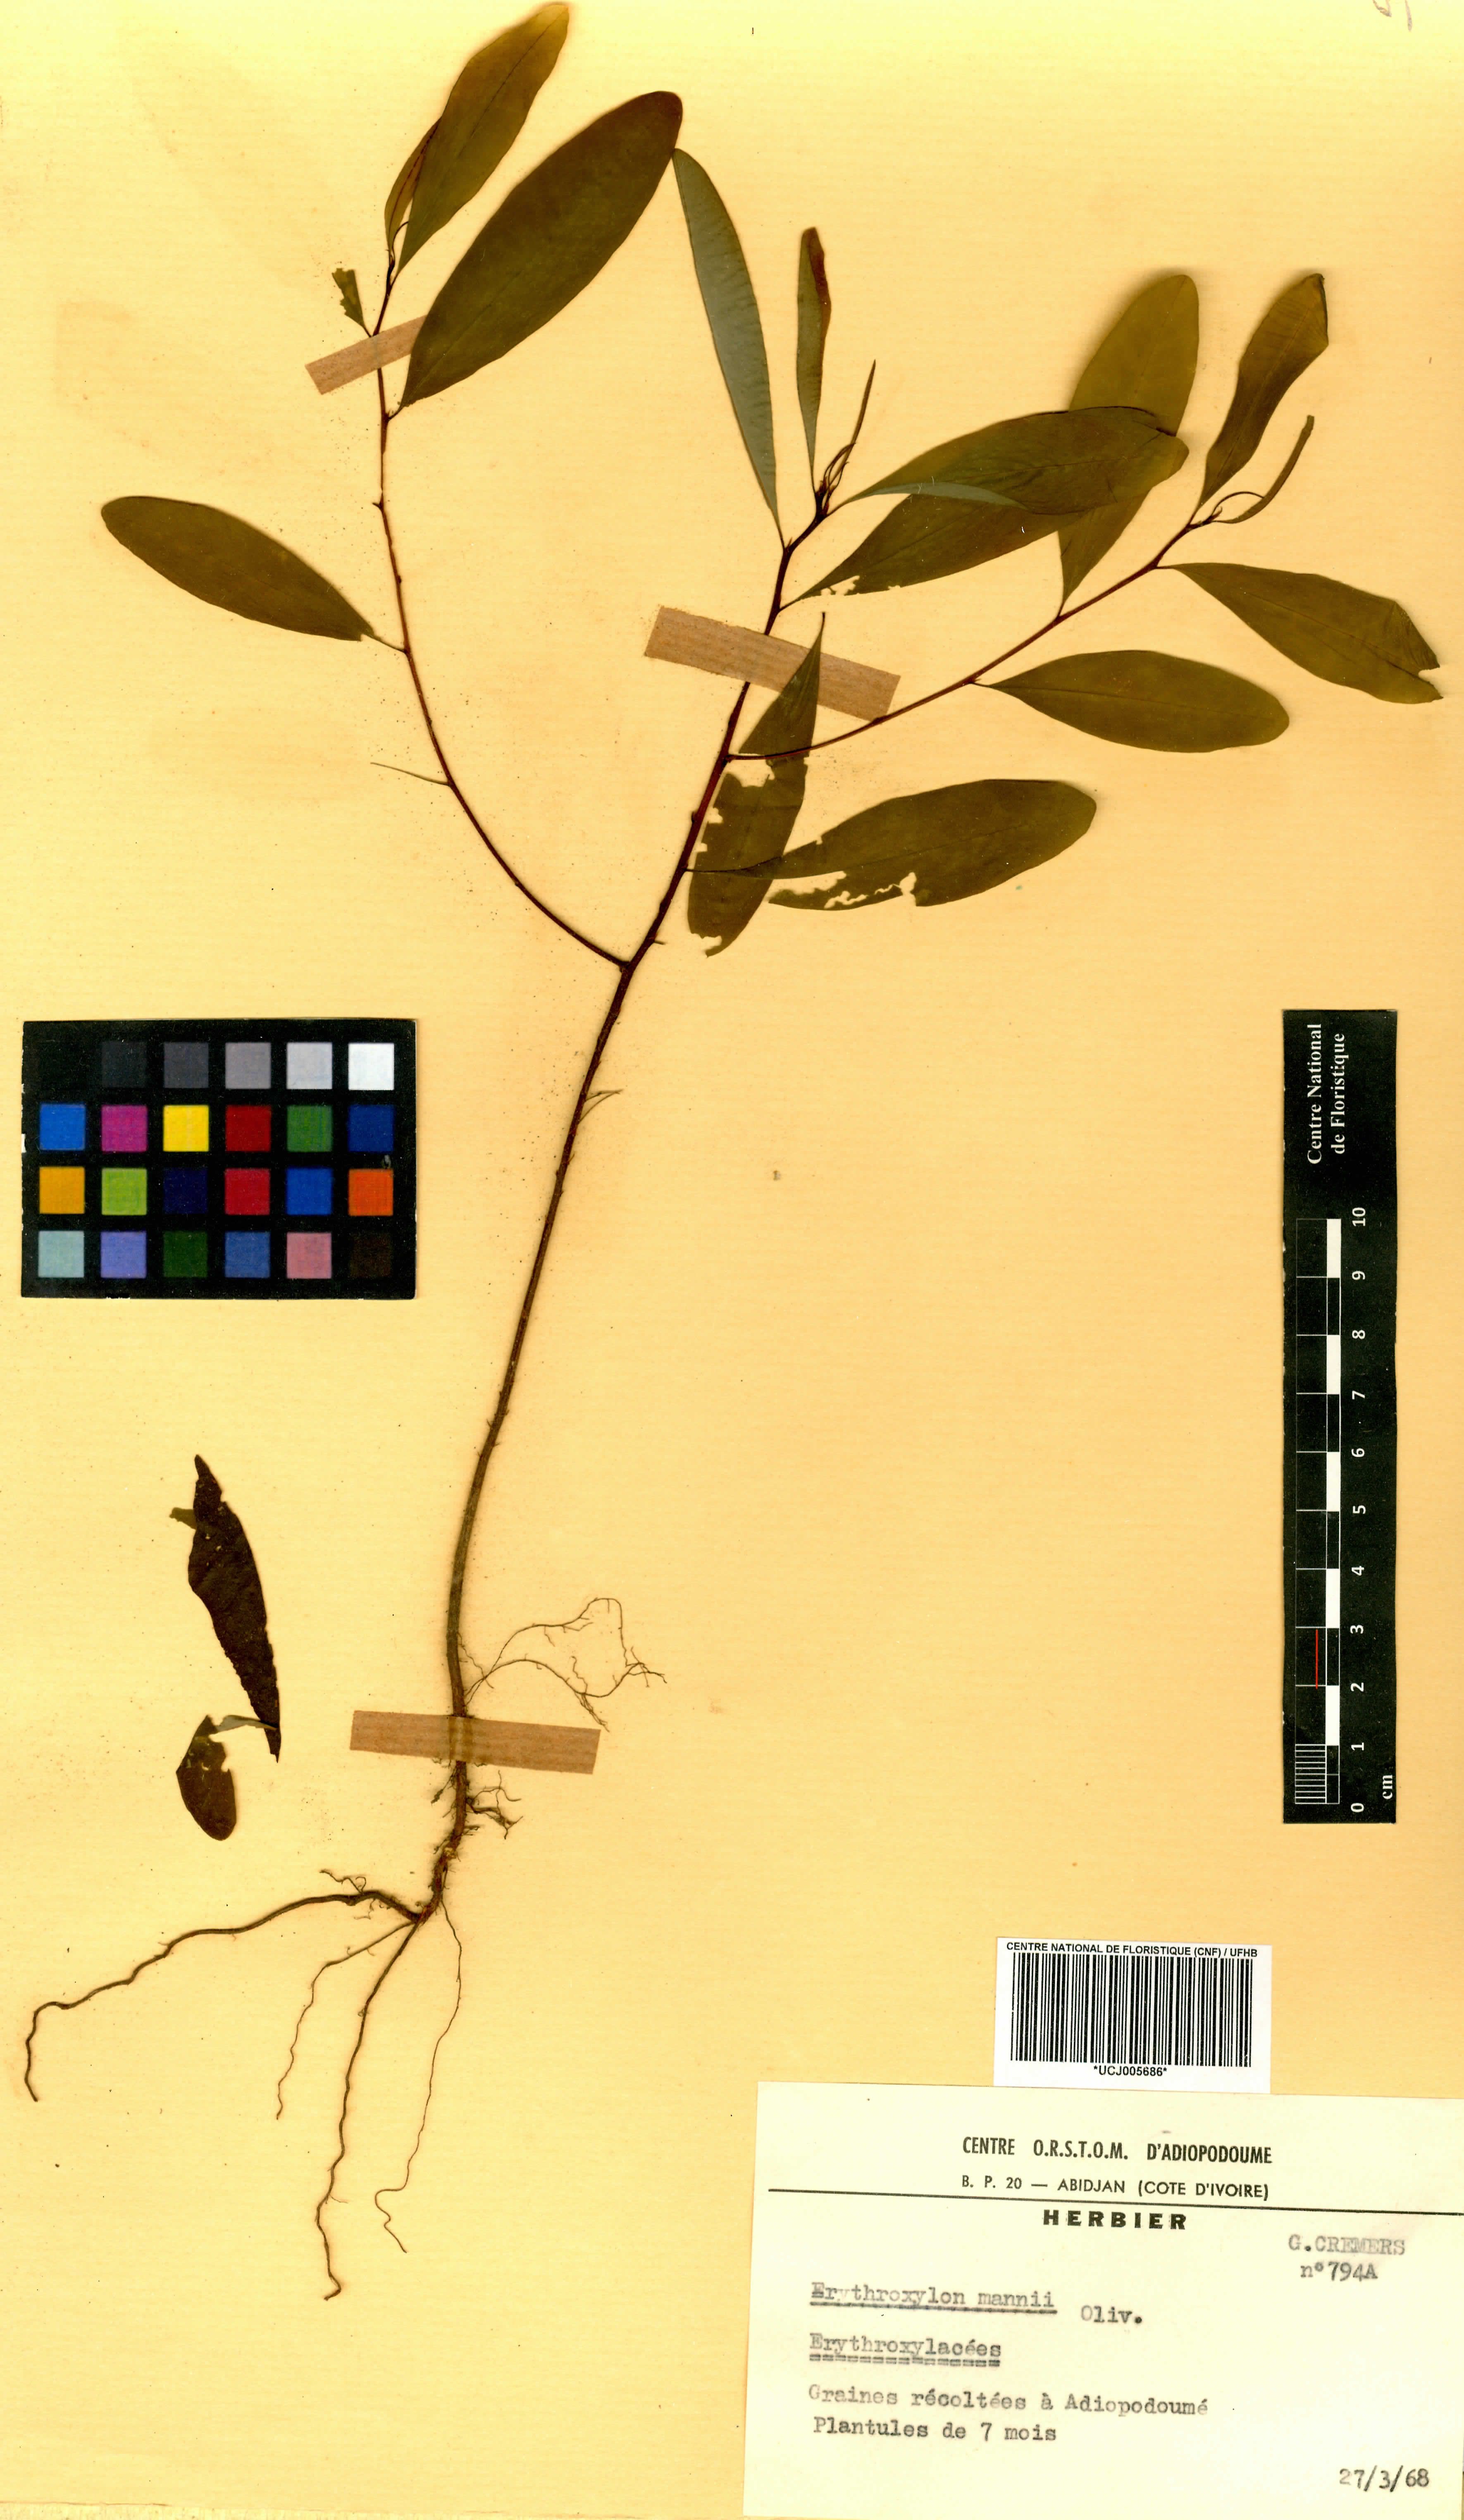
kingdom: Plantae
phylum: Tracheophyta
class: Magnoliopsida
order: Malpighiales
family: Erythroxylaceae
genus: Erythroxylum
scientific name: Erythroxylum mannii
